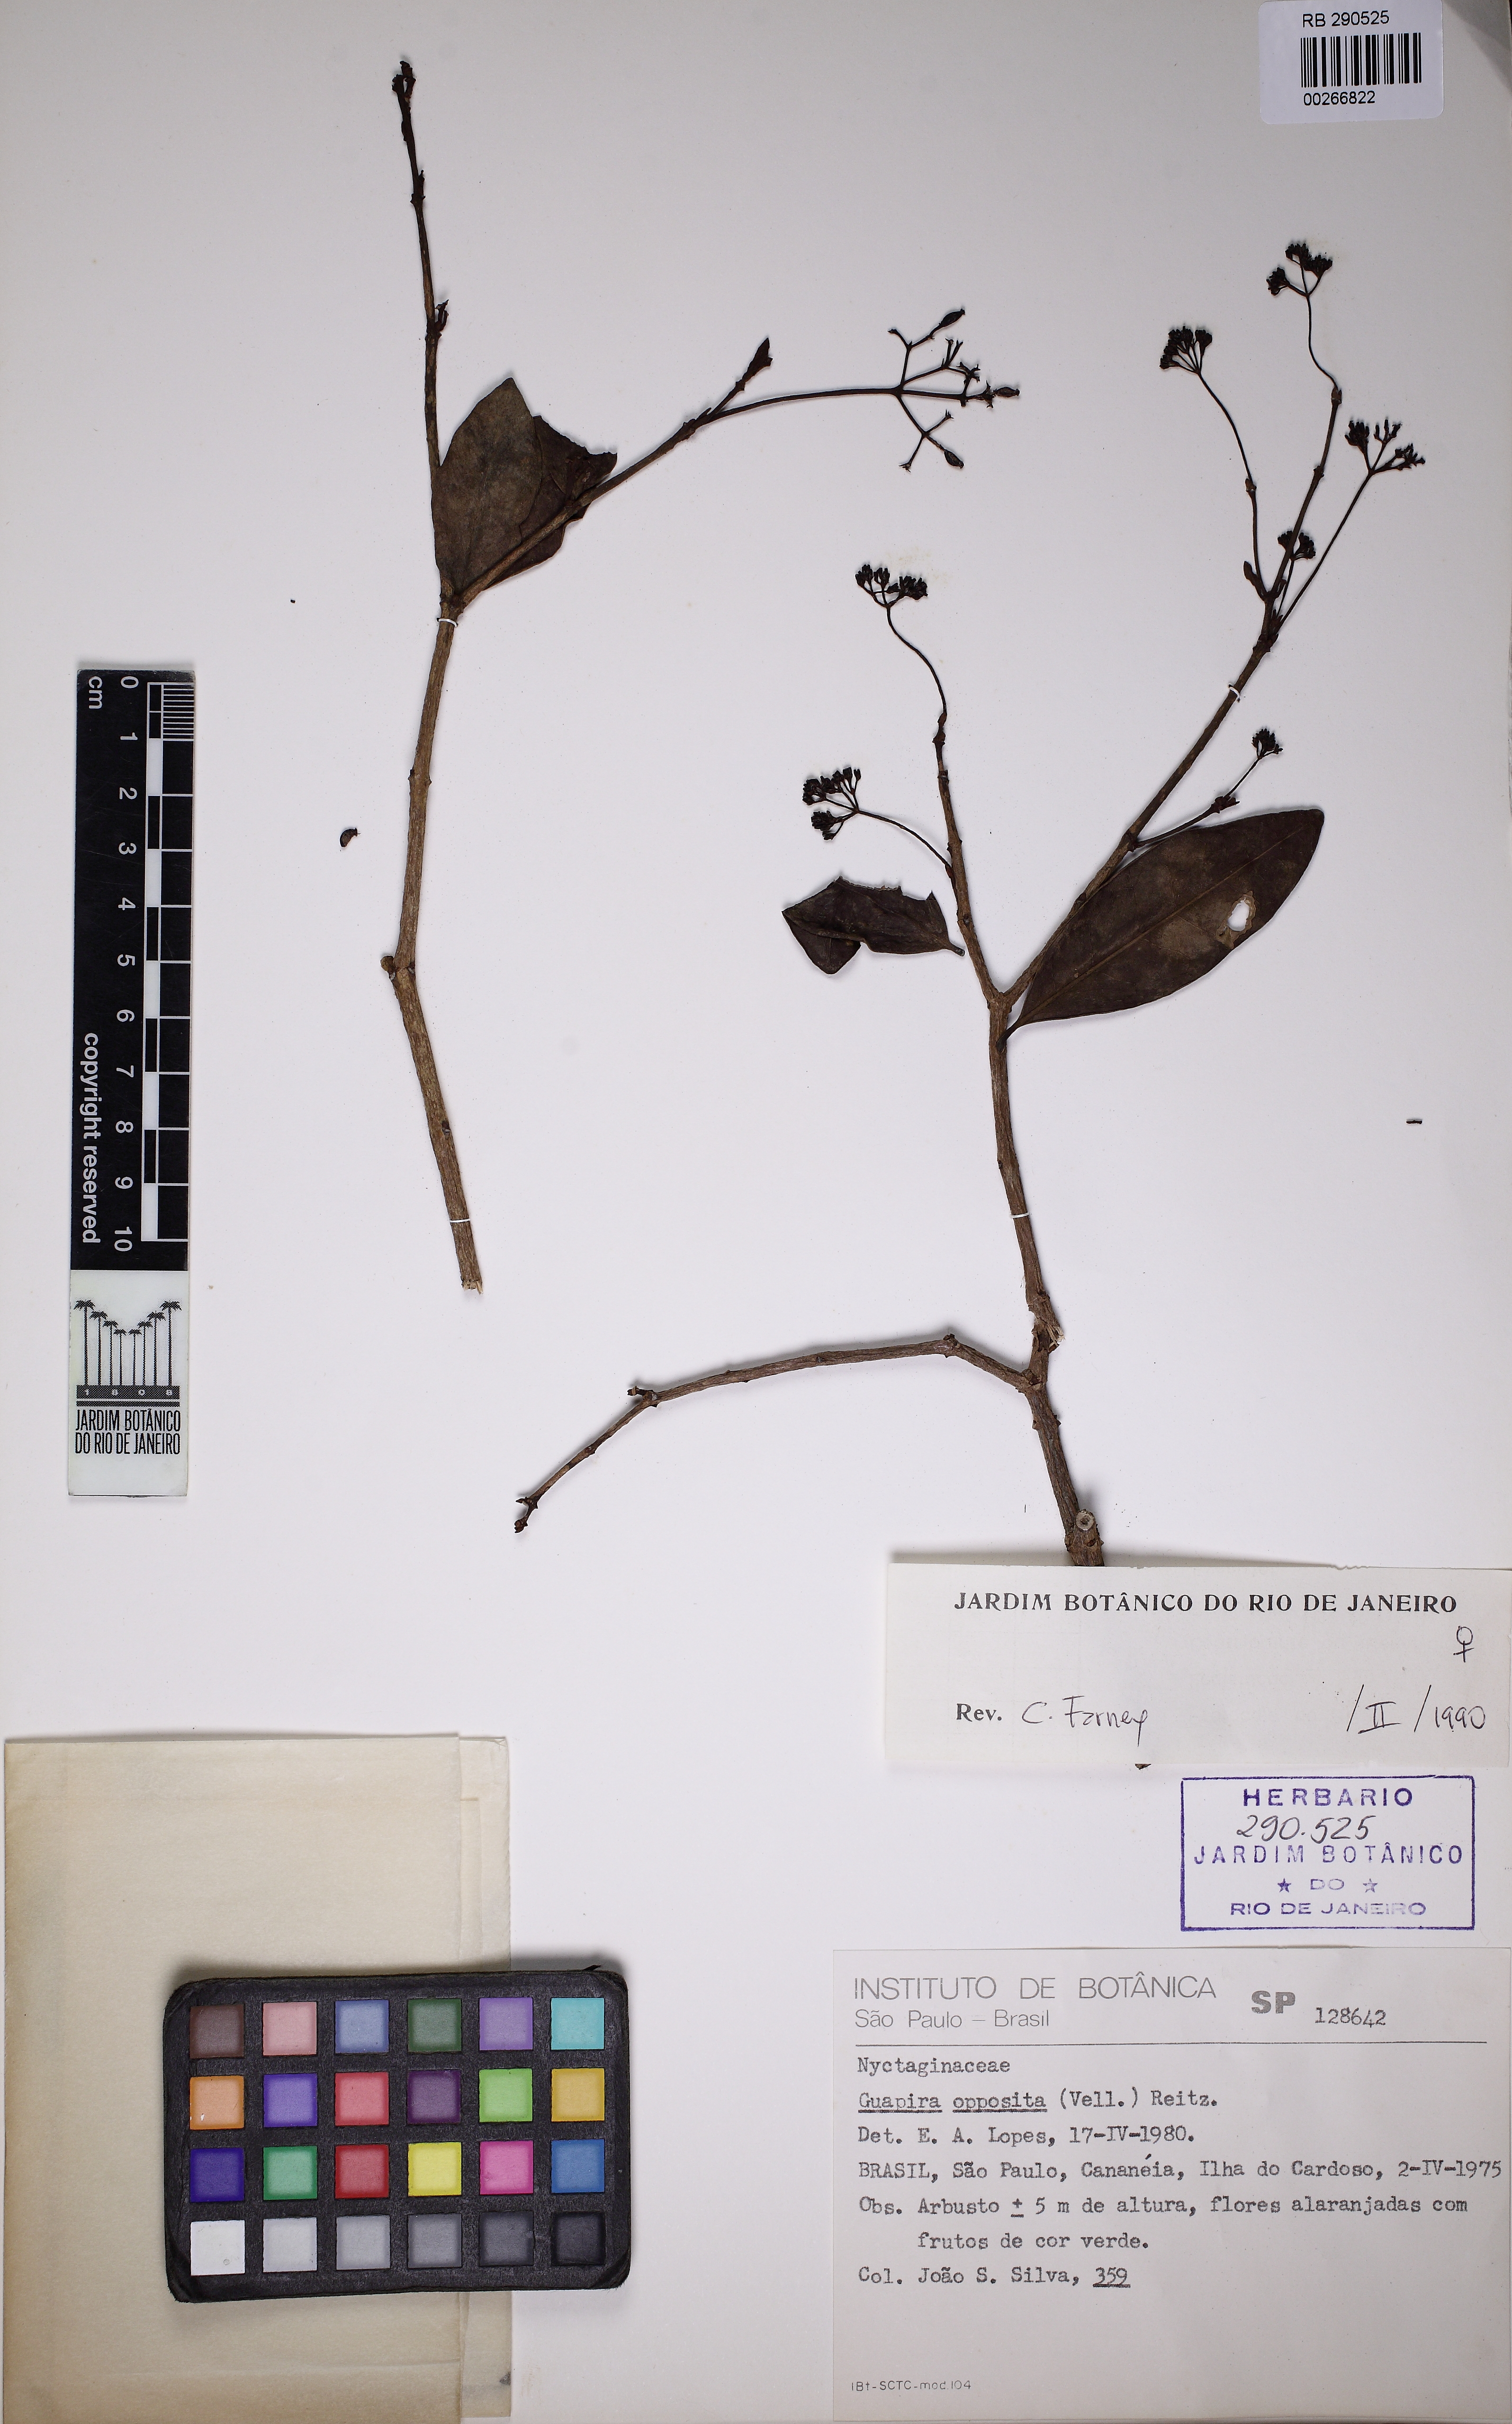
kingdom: Plantae
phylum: Tracheophyta
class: Magnoliopsida
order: Caryophyllales
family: Nyctaginaceae
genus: Guapira
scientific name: Guapira opposita
